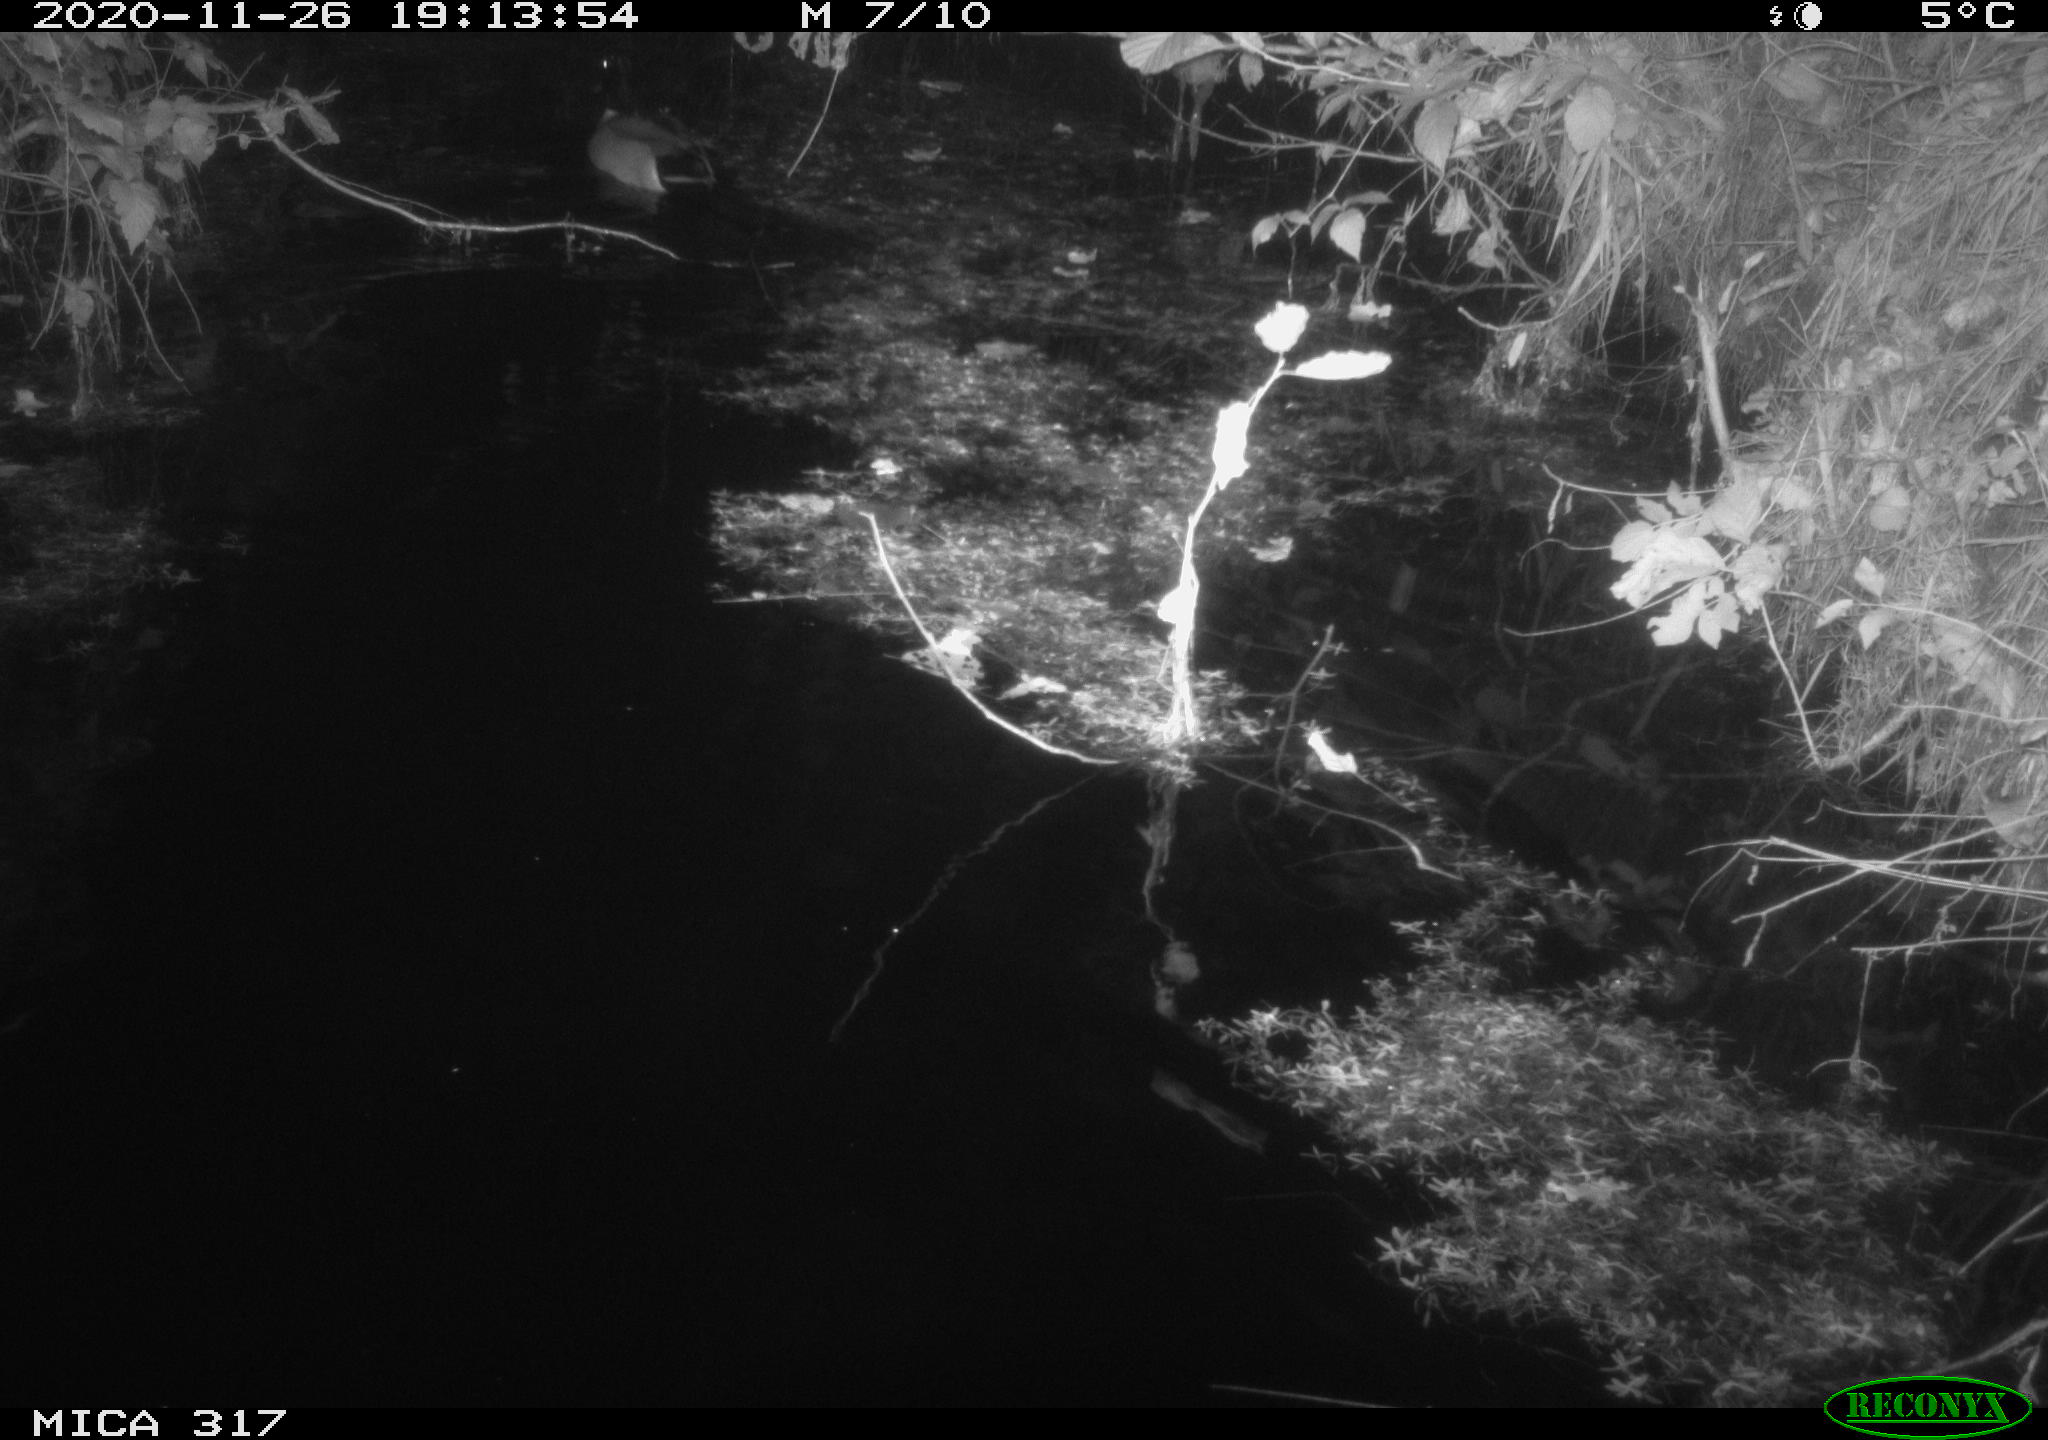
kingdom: Animalia
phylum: Chordata
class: Aves
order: Anseriformes
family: Anatidae
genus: Anas
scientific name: Anas platyrhynchos
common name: Mallard
